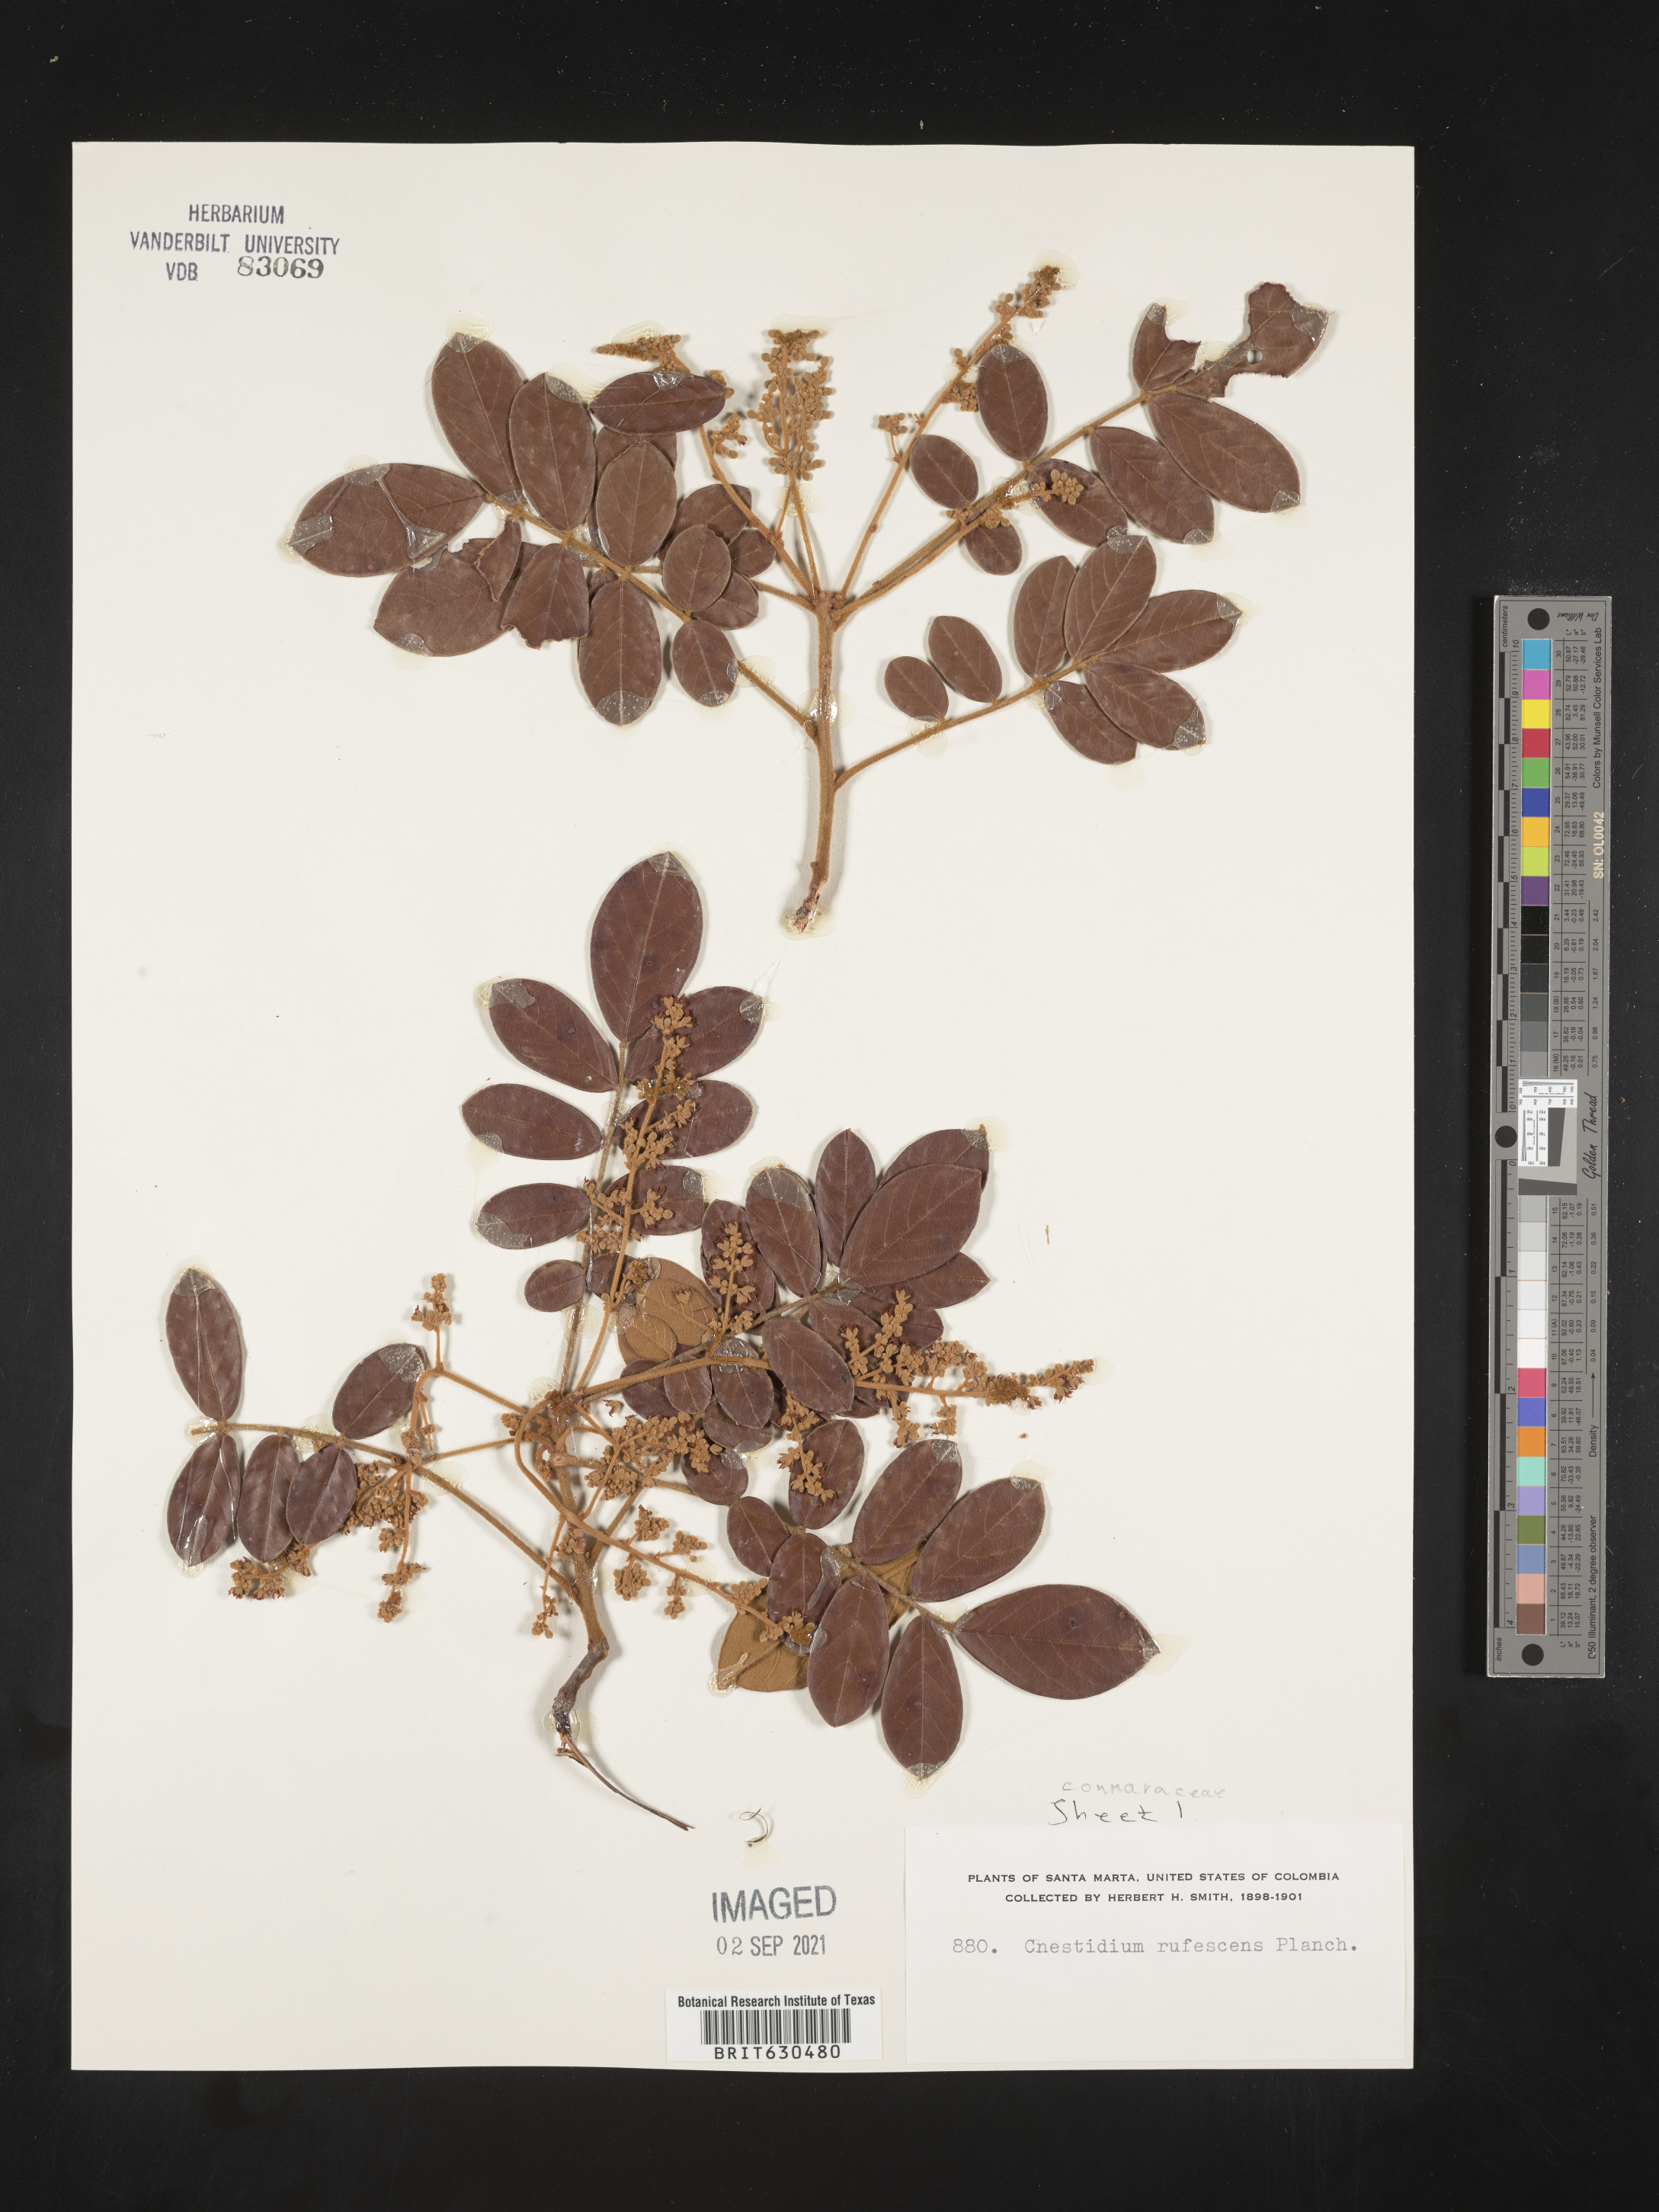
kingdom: Plantae
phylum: Tracheophyta
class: Magnoliopsida
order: Oxalidales
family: Connaraceae
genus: Cnestidium
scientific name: Cnestidium rufescens
